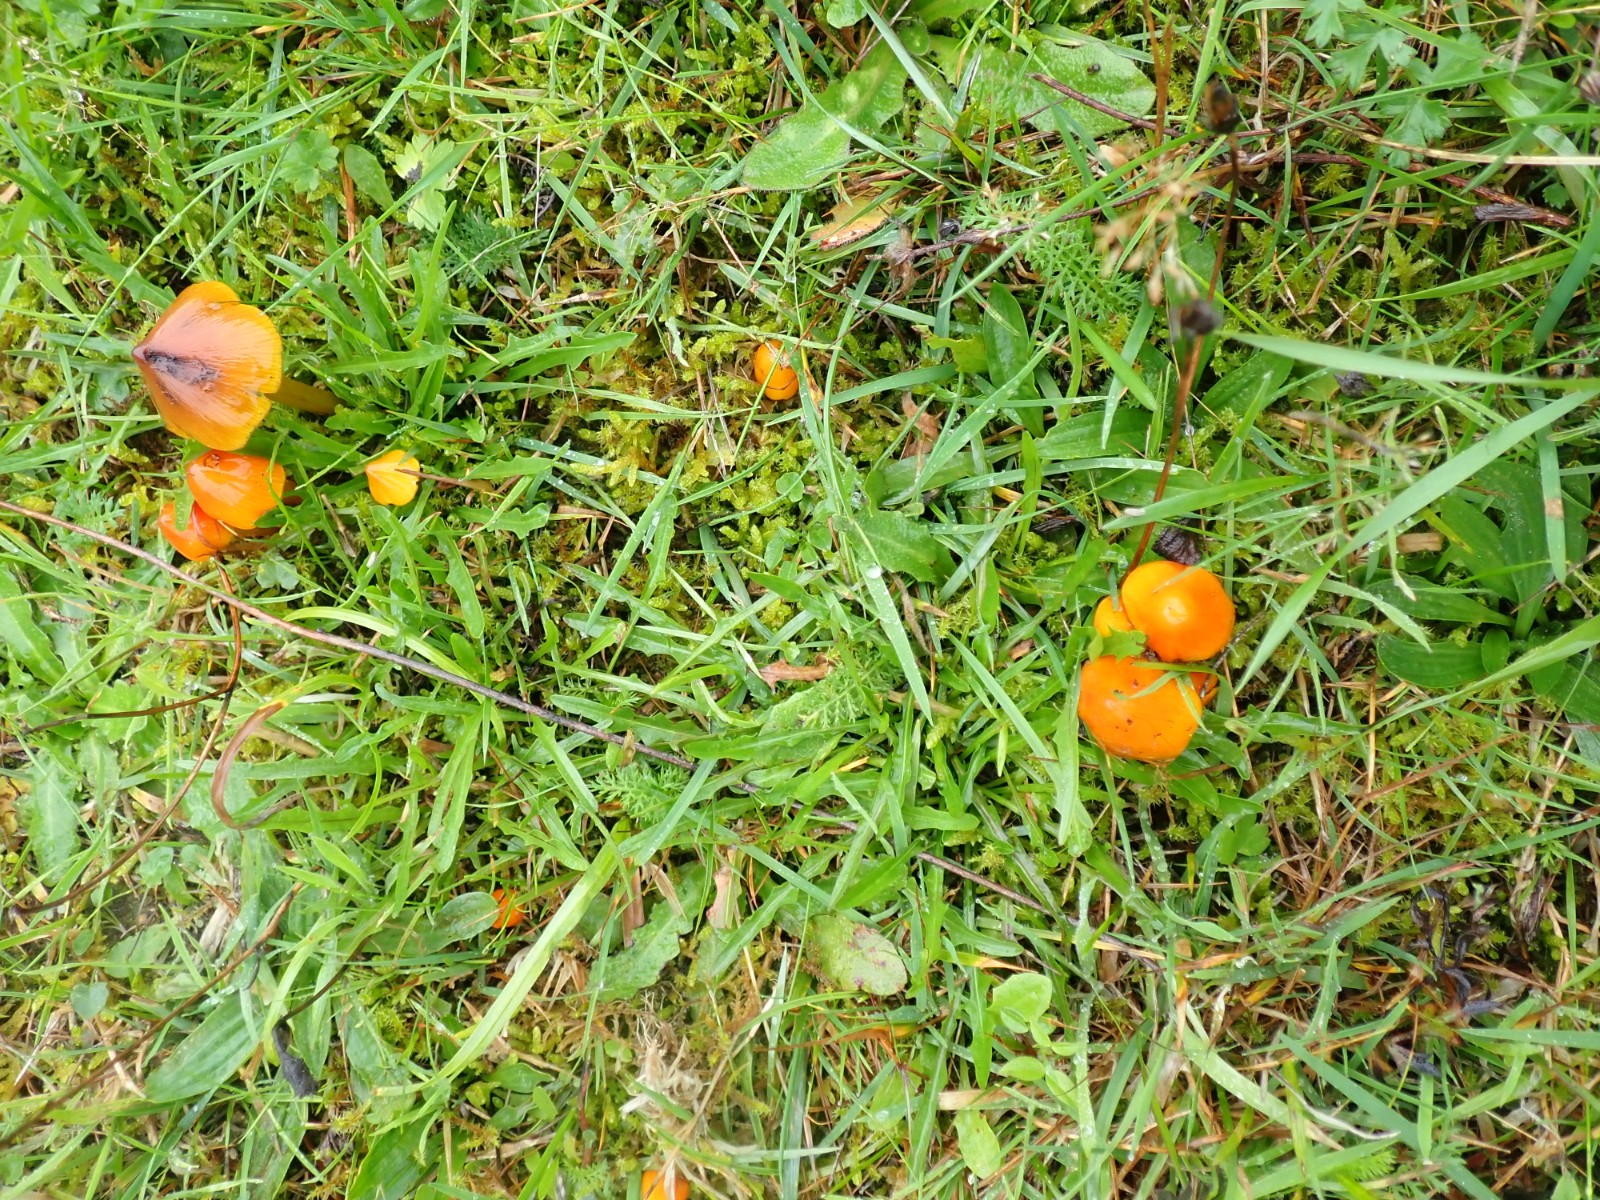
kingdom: Fungi
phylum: Basidiomycota
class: Agaricomycetes
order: Agaricales
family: Hygrophoraceae
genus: Hygrocybe
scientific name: Hygrocybe conica
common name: kegle-vokshat
